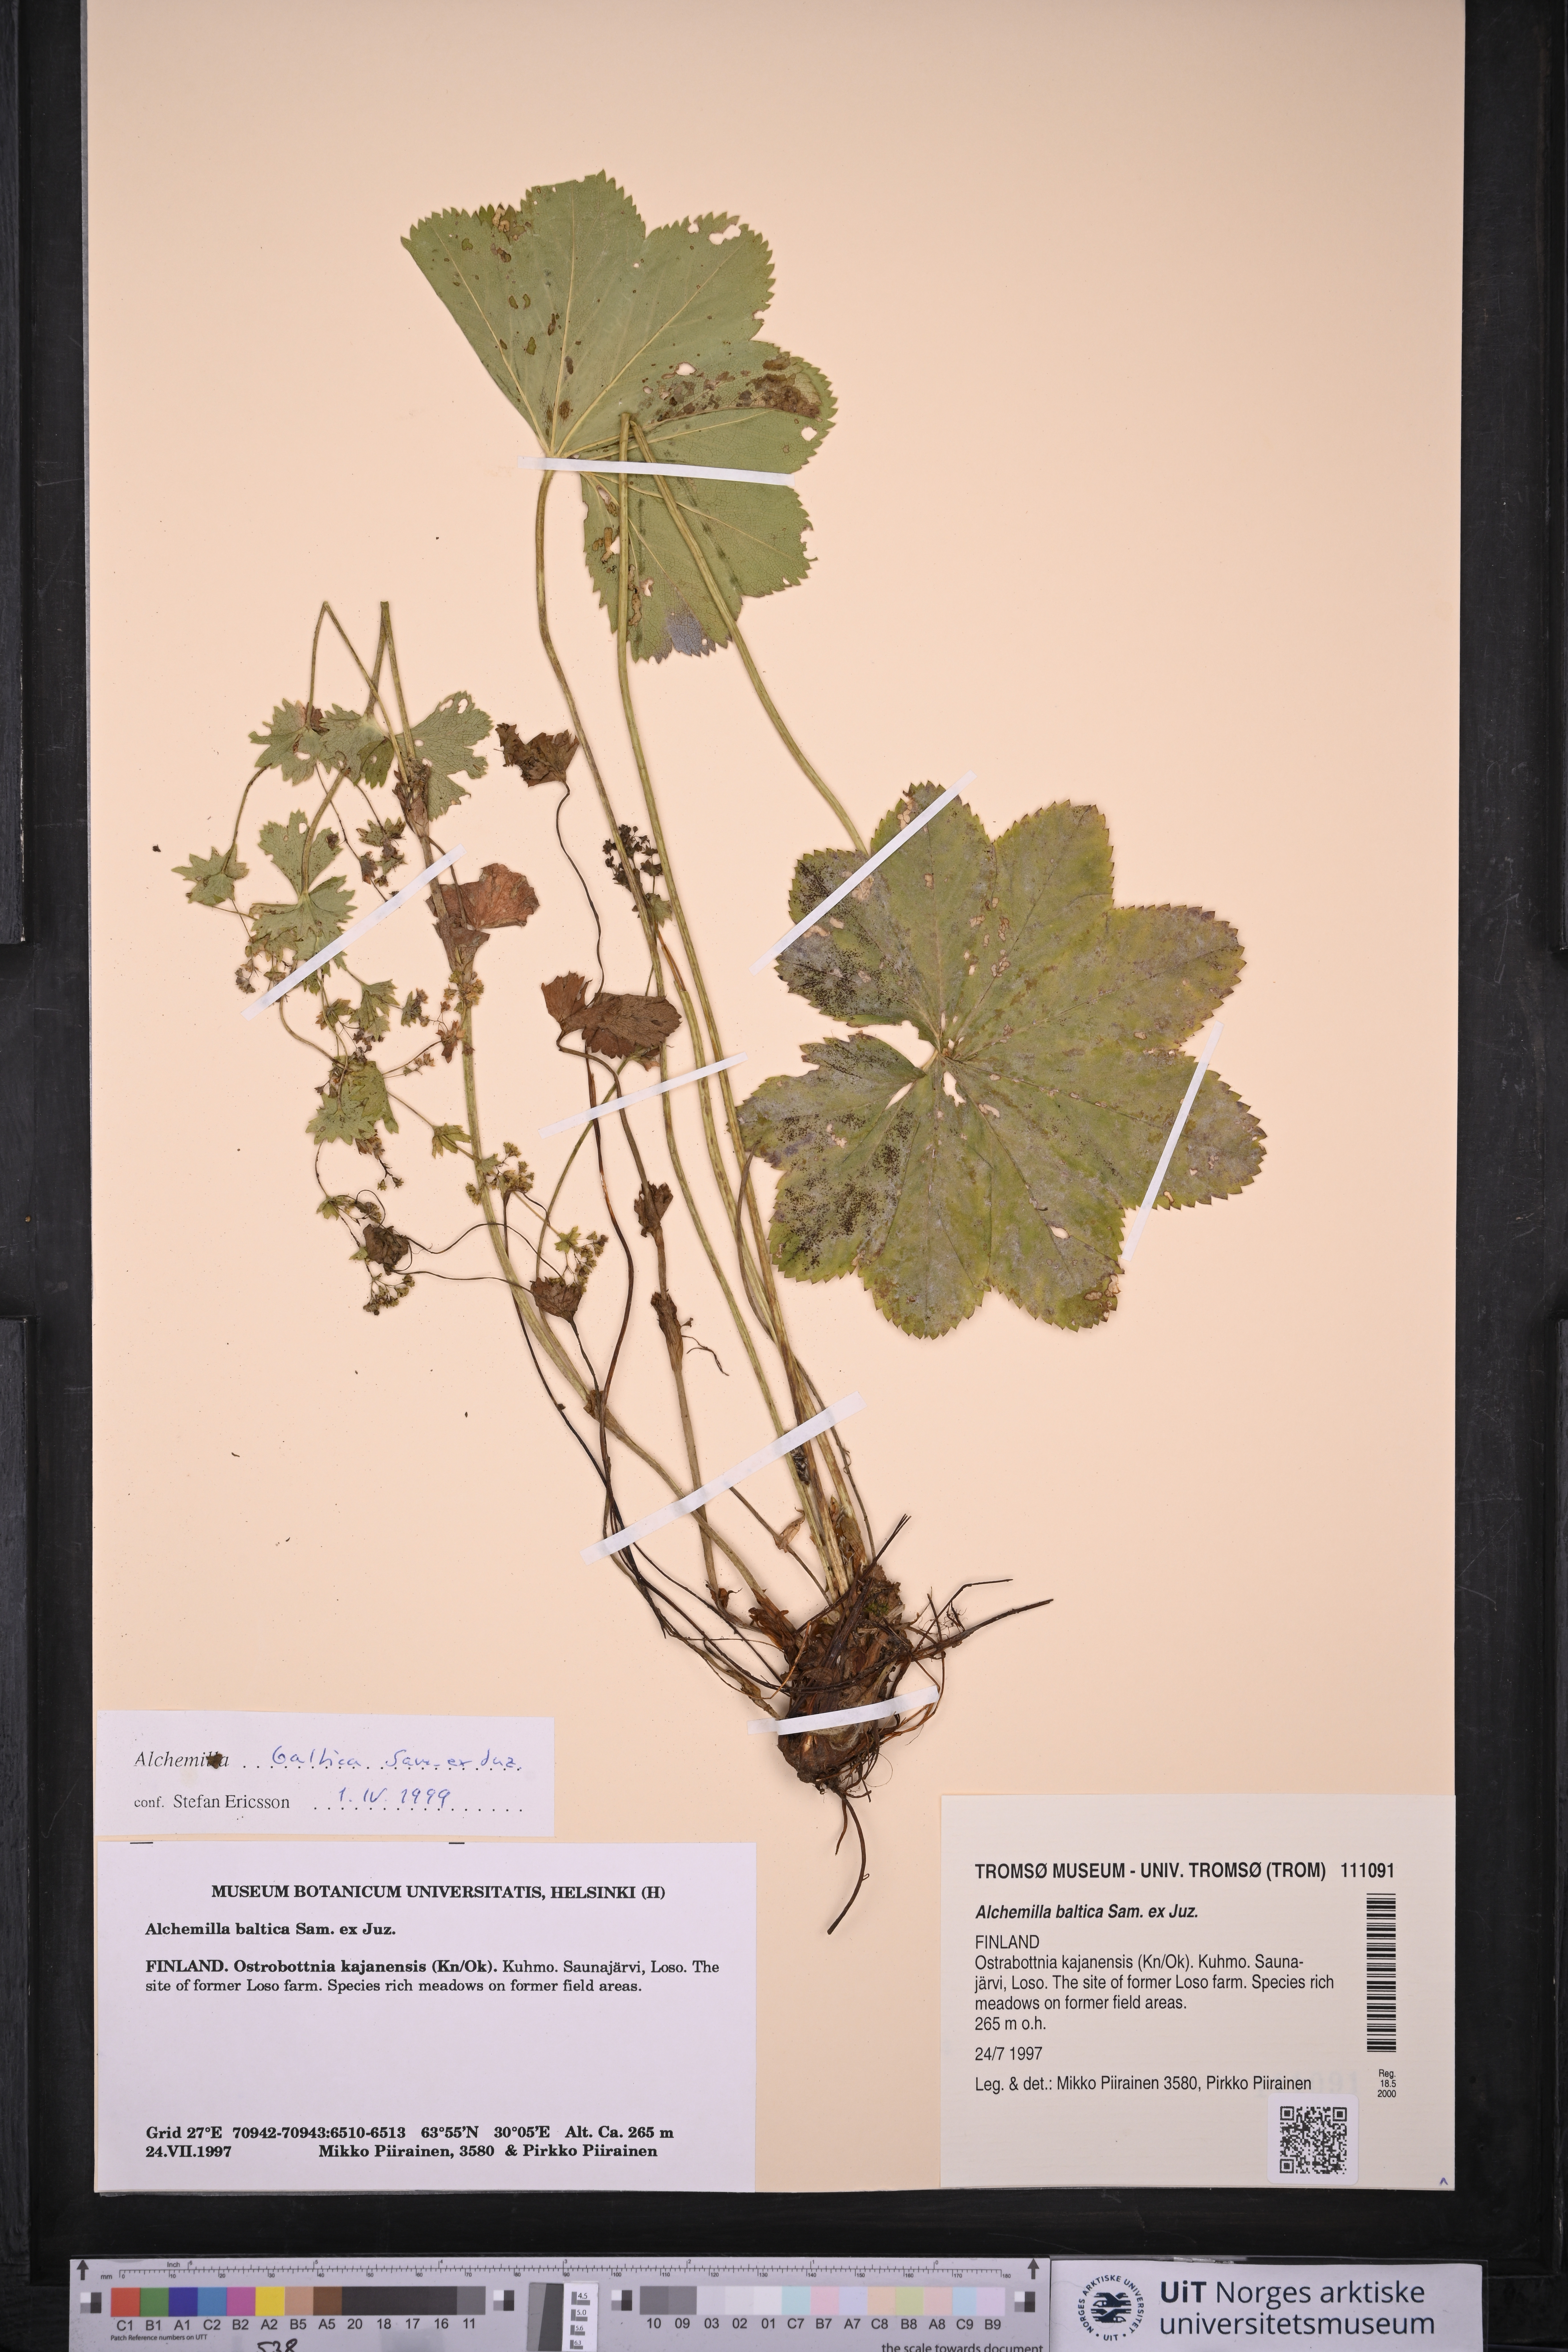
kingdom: Plantae
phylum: Tracheophyta
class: Magnoliopsida
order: Rosales
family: Rosaceae
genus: Alchemilla
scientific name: Alchemilla baltica
